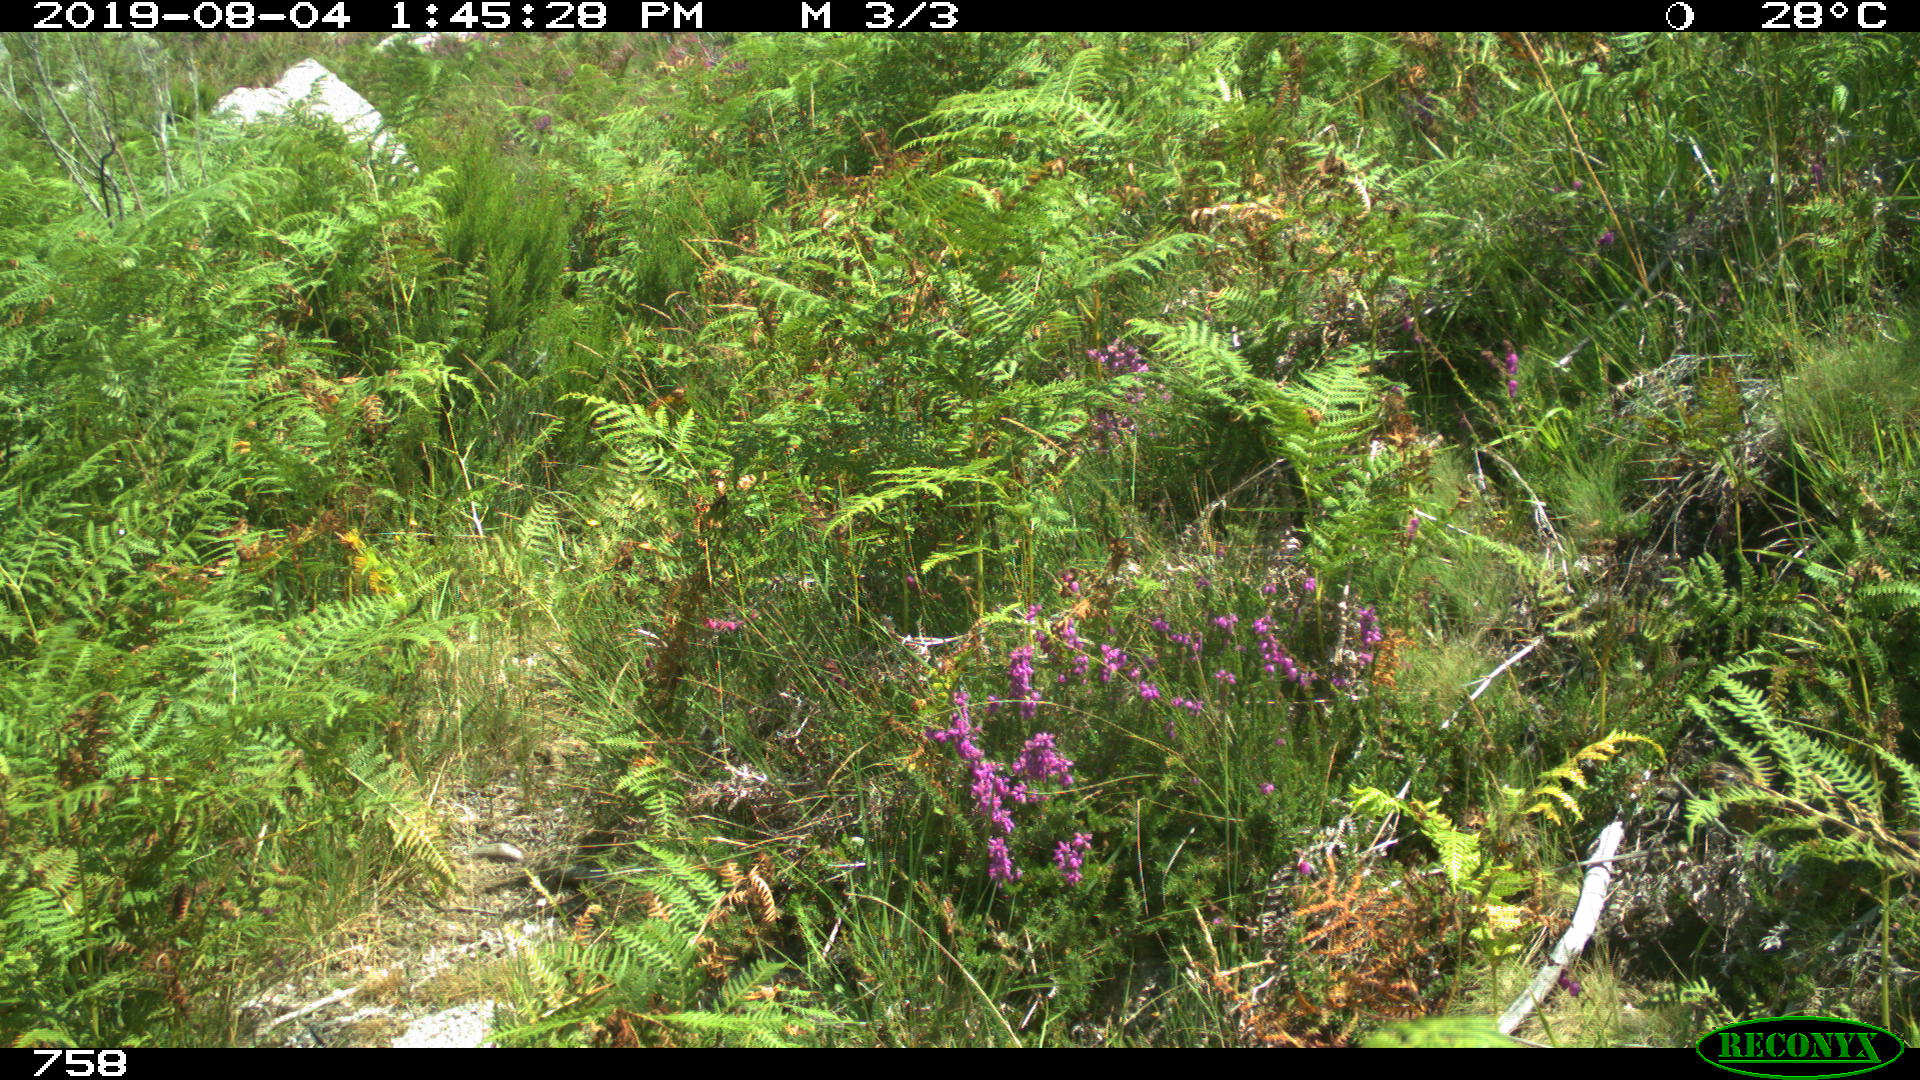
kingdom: Animalia
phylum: Chordata
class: Mammalia
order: Artiodactyla
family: Cervidae
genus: Capreolus
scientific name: Capreolus capreolus
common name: Western roe deer
